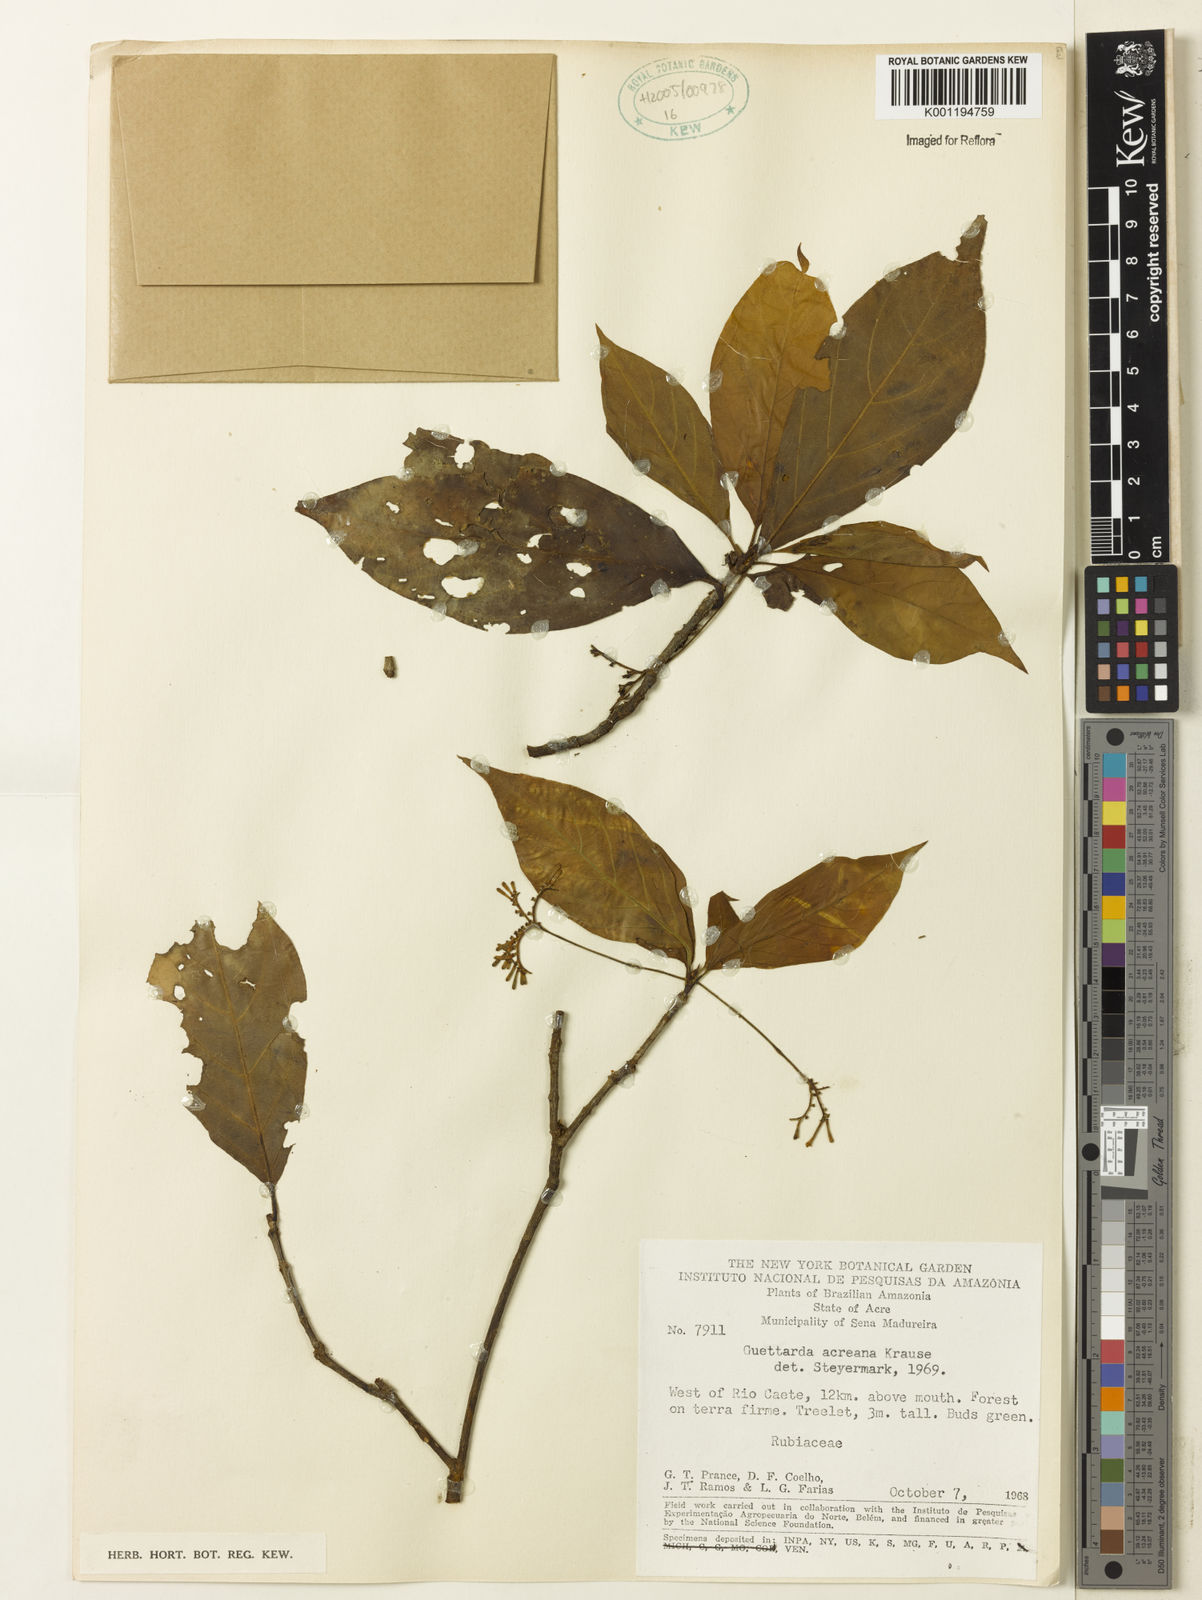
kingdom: Plantae
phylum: Tracheophyta
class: Magnoliopsida
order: Gentianales
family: Rubiaceae
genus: Stenostomum
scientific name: Stenostomum acreanum
